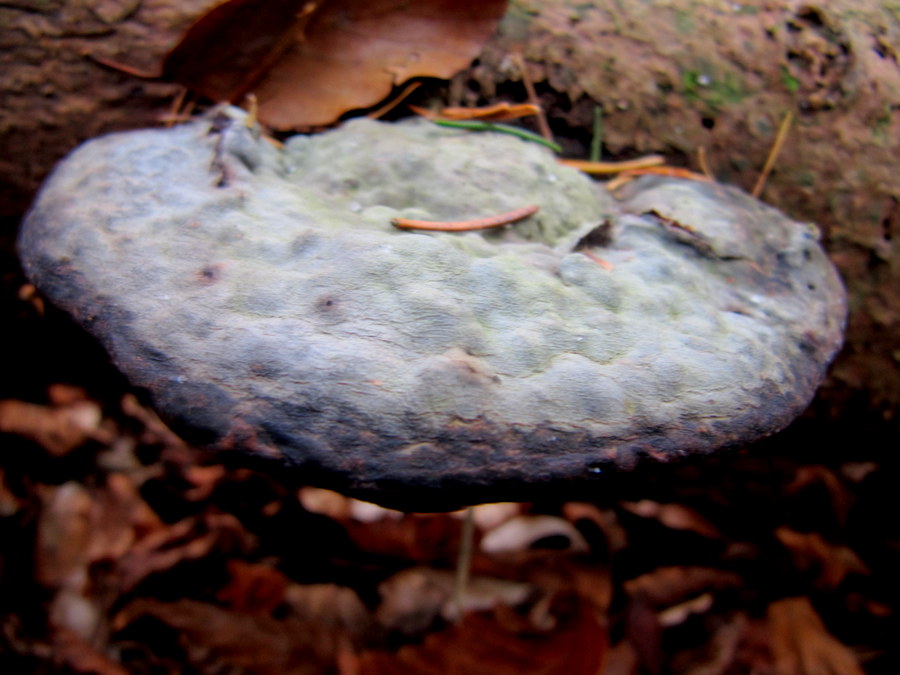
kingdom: Fungi
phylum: Basidiomycota
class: Agaricomycetes
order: Polyporales
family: Fomitopsidaceae
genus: Fomitopsis
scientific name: Fomitopsis pinicola
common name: randbæltet hovporesvamp
